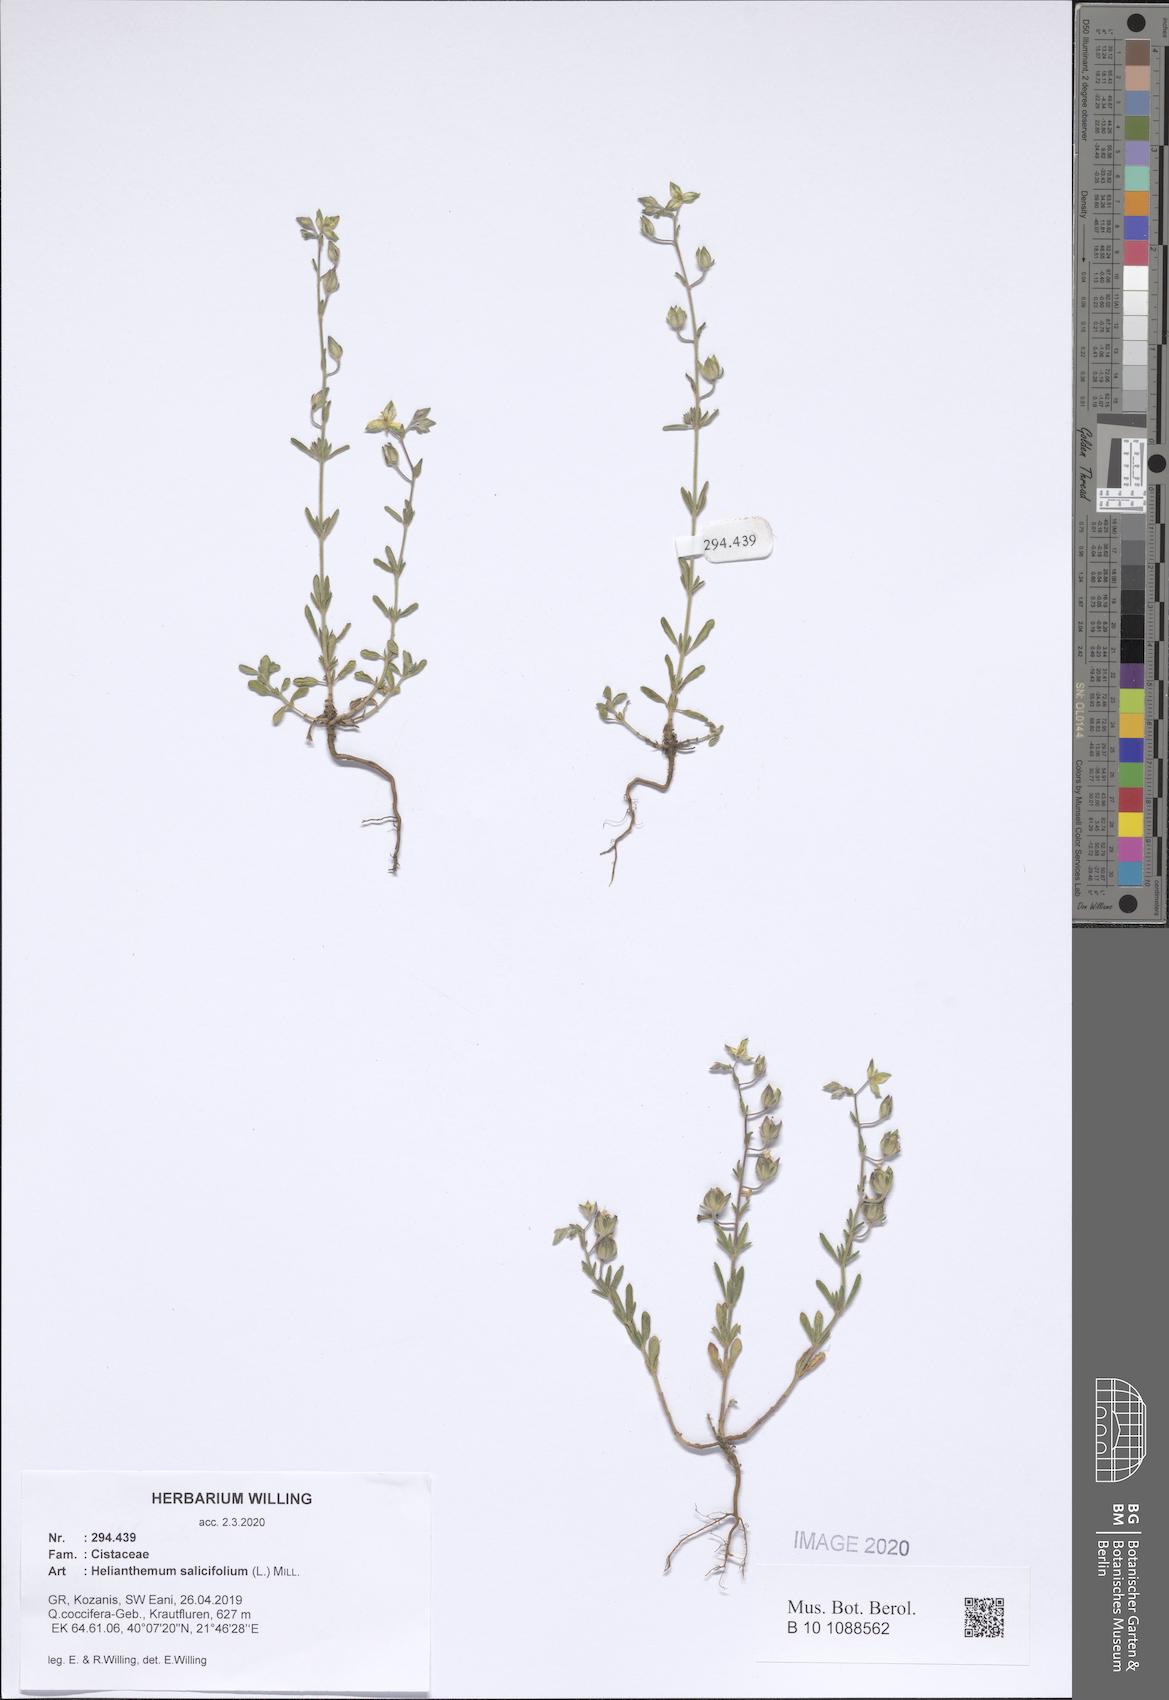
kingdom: Plantae
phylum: Tracheophyta
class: Magnoliopsida
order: Malvales
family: Cistaceae
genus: Helianthemum
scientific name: Helianthemum salicifolium
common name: Willowleaf frostweed
